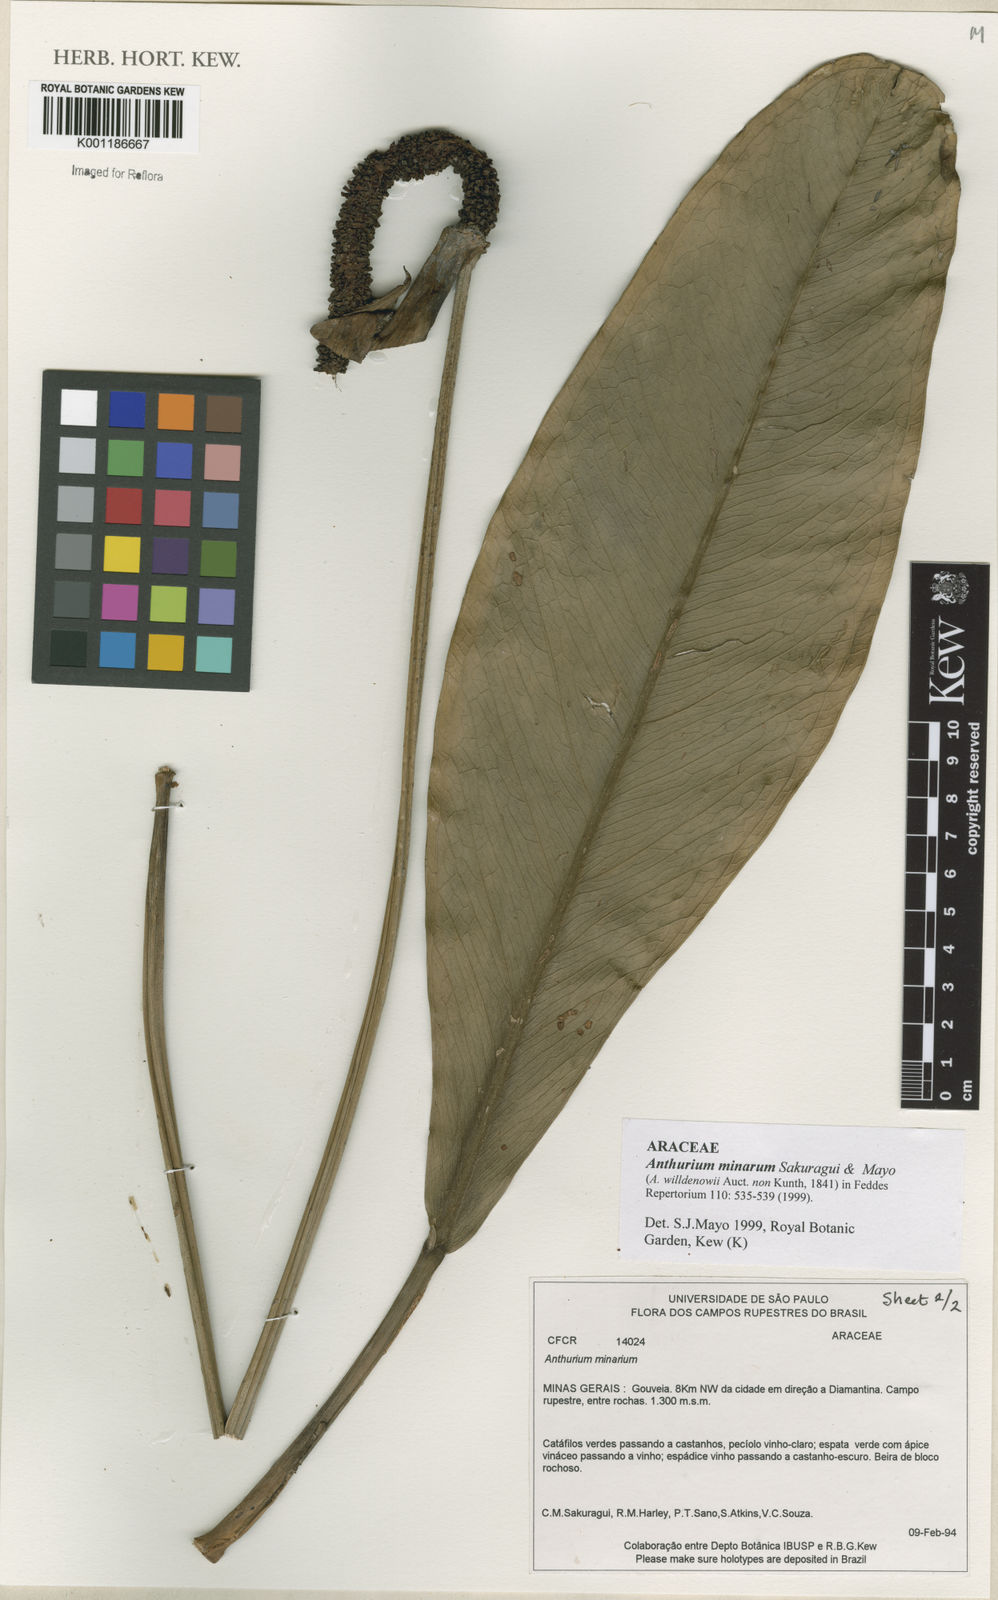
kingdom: Plantae
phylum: Tracheophyta
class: Liliopsida
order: Alismatales
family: Araceae
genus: Anthurium
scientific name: Anthurium minarum
